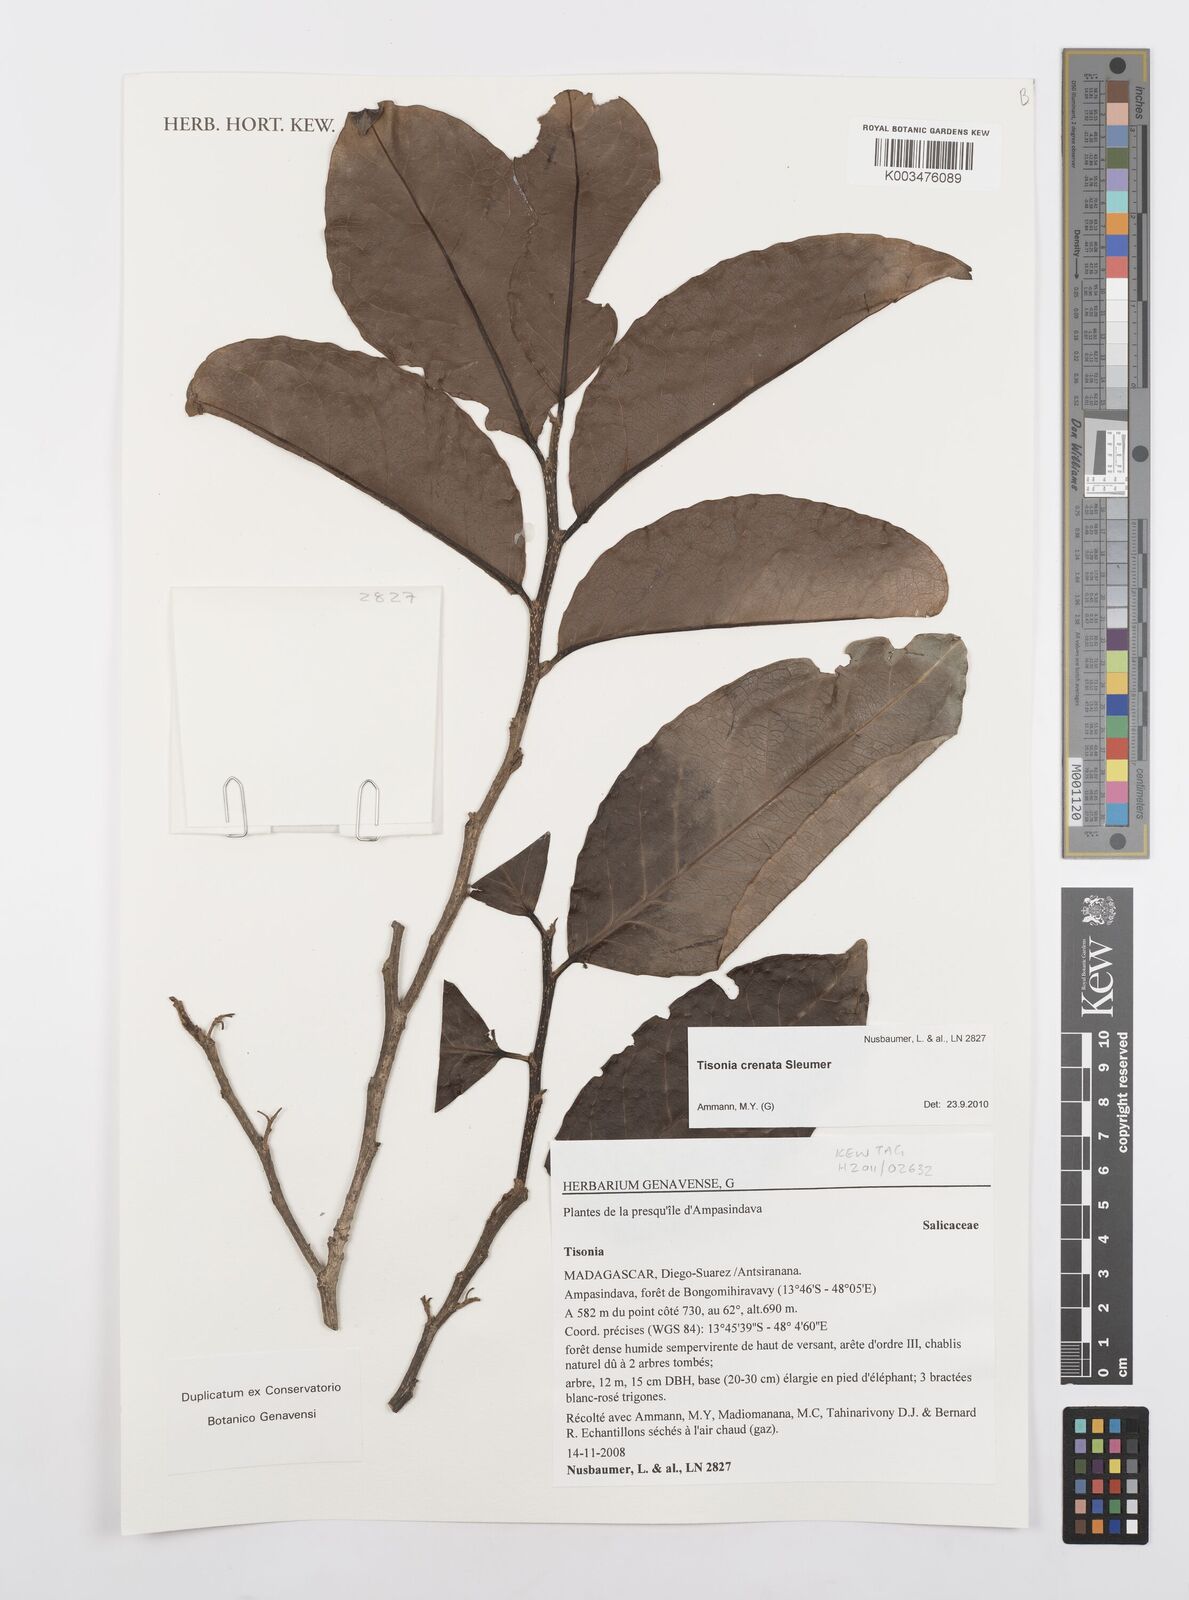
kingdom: Plantae
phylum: Tracheophyta
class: Magnoliopsida
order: Malpighiales
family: Salicaceae
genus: Tisonia
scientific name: Tisonia baronii
